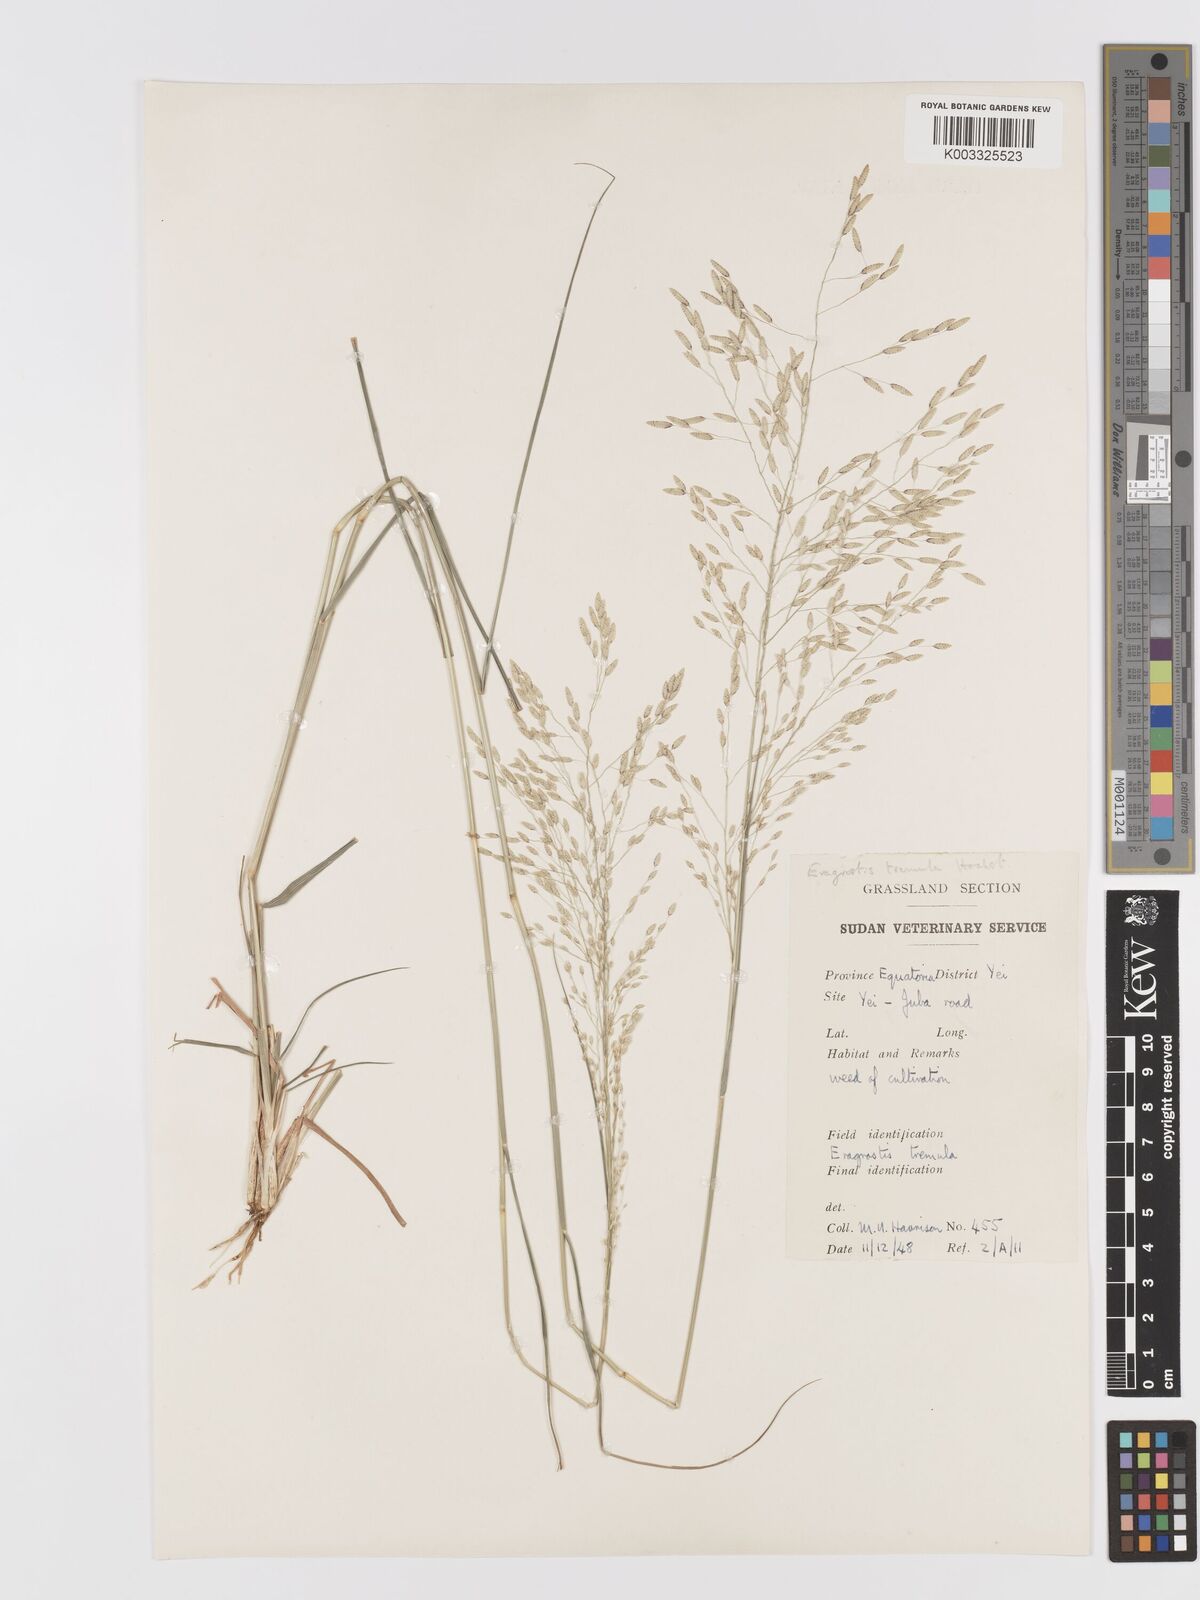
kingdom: Plantae
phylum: Tracheophyta
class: Liliopsida
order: Poales
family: Poaceae
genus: Eragrostis
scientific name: Eragrostis tremula
